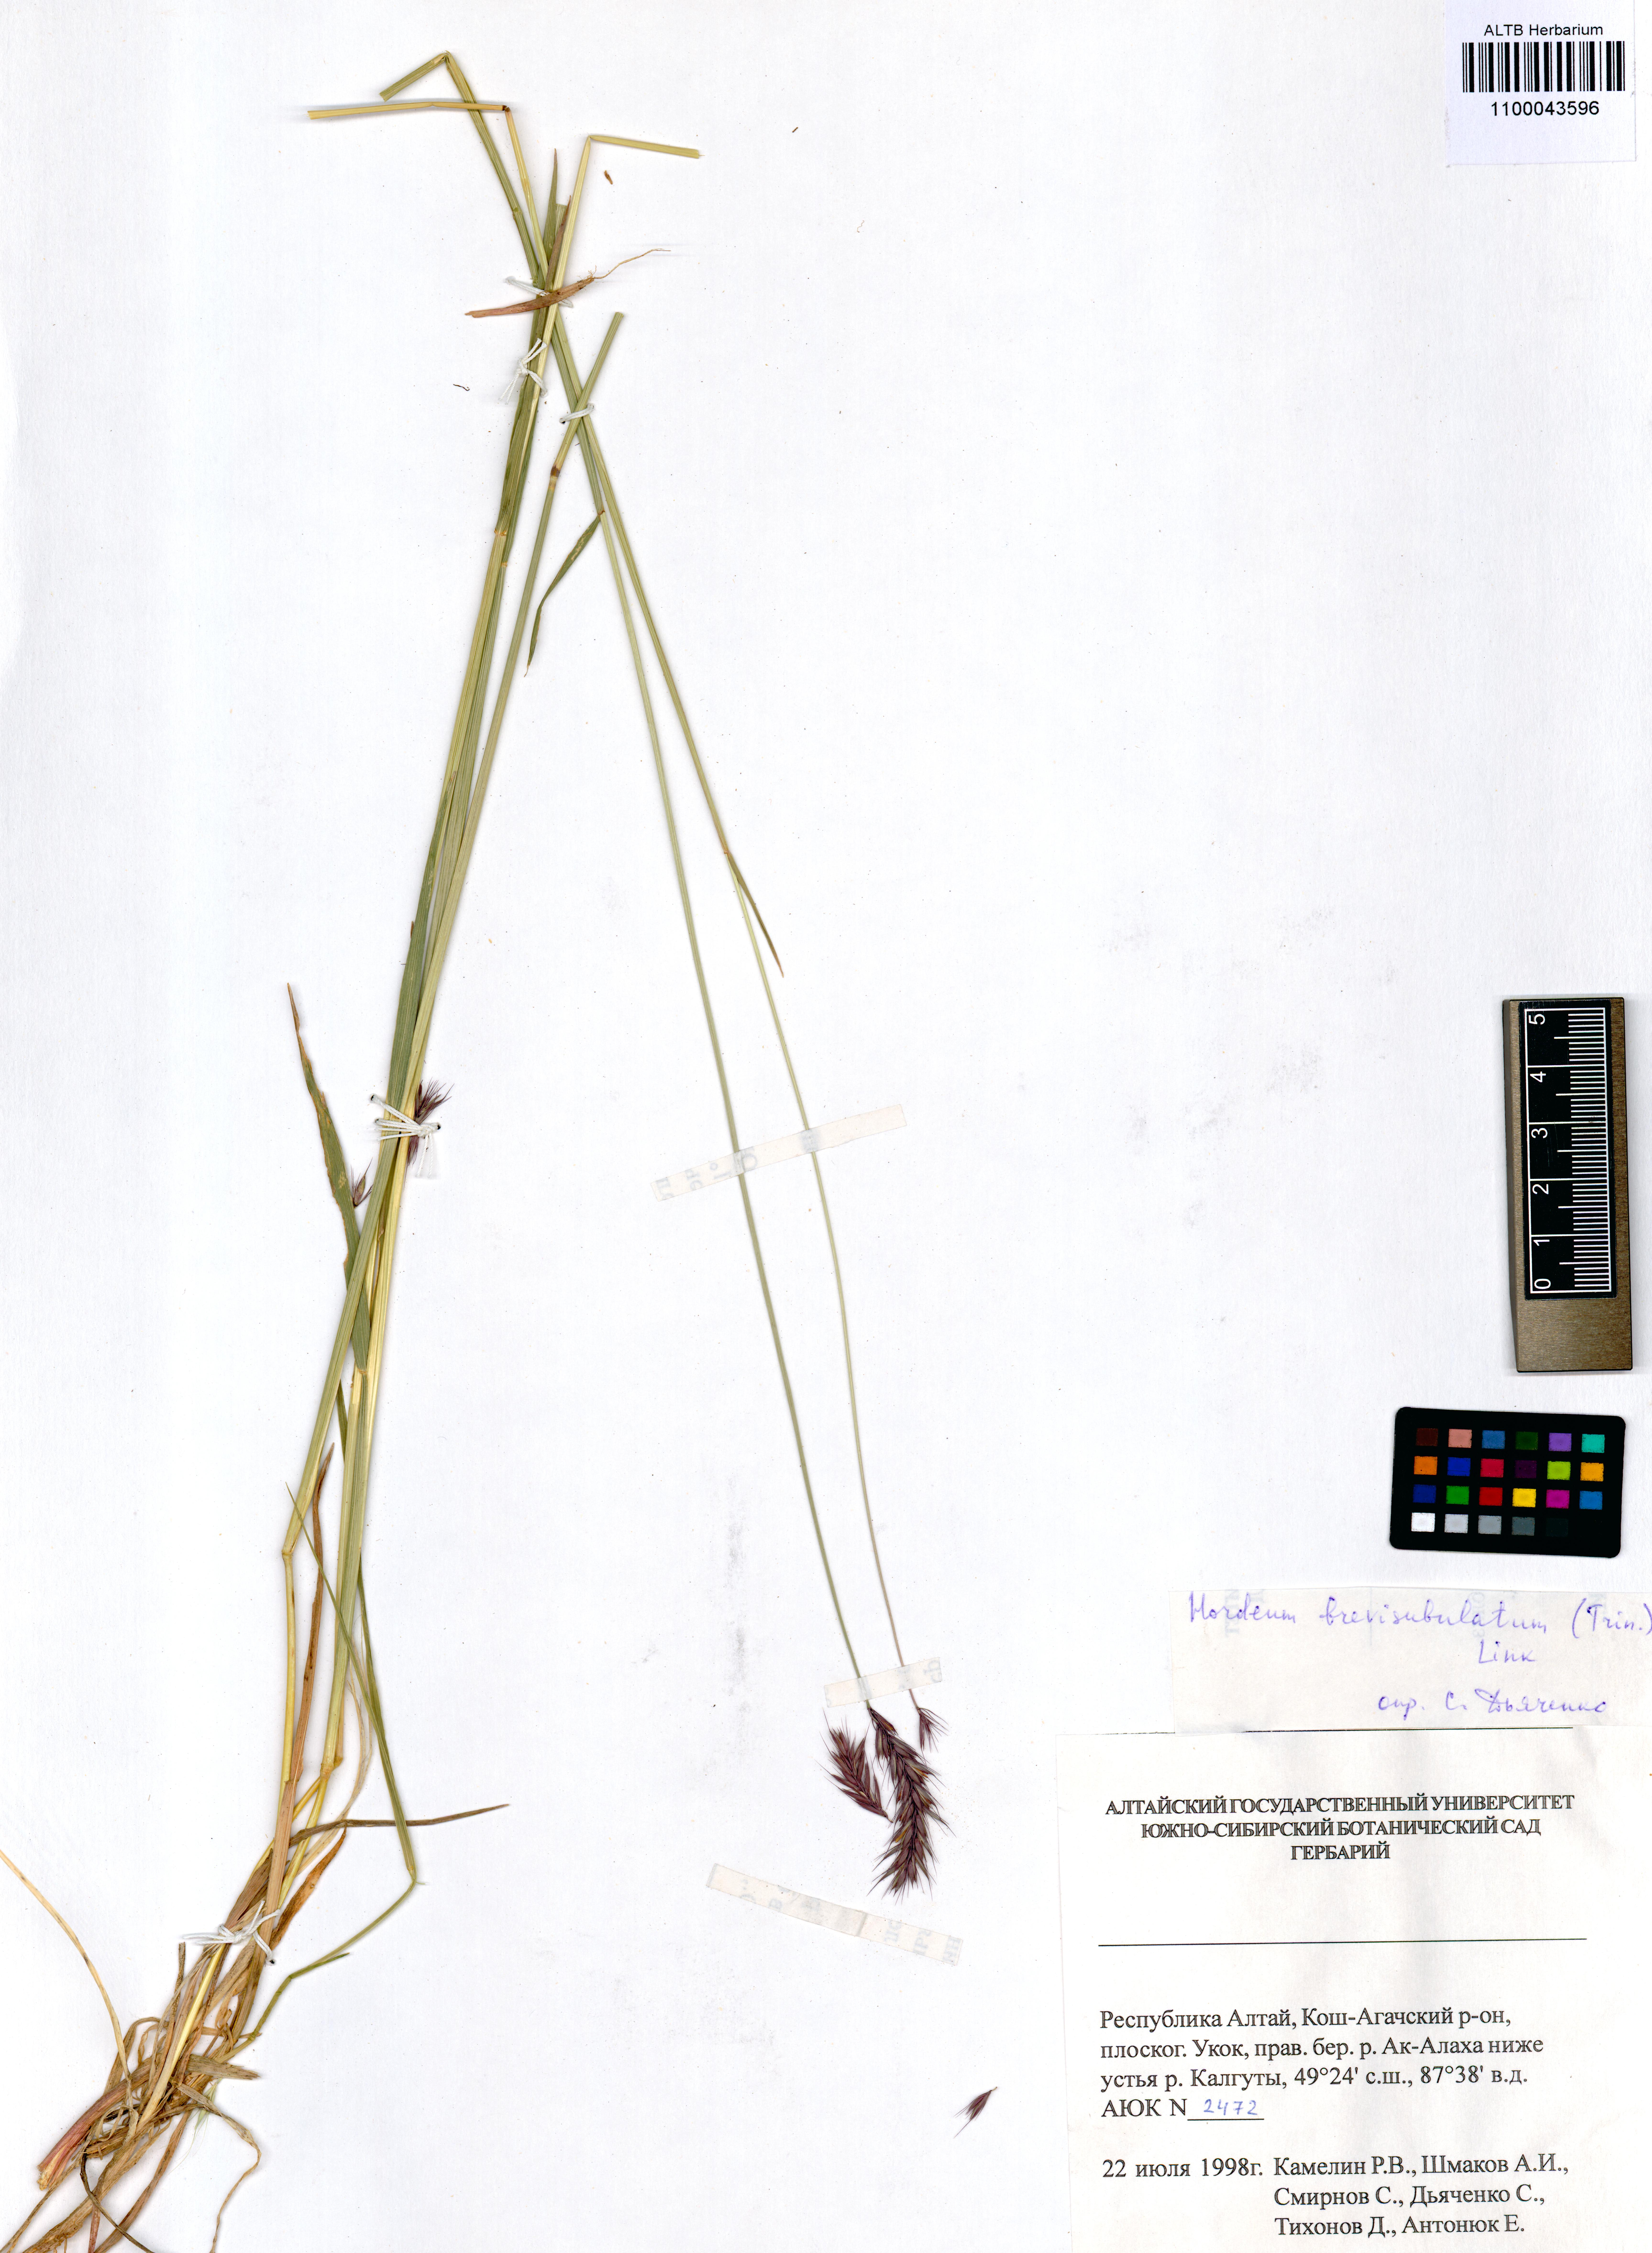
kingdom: Plantae
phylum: Tracheophyta
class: Liliopsida
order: Poales
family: Poaceae
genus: Hordeum
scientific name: Hordeum brevisubulatum
